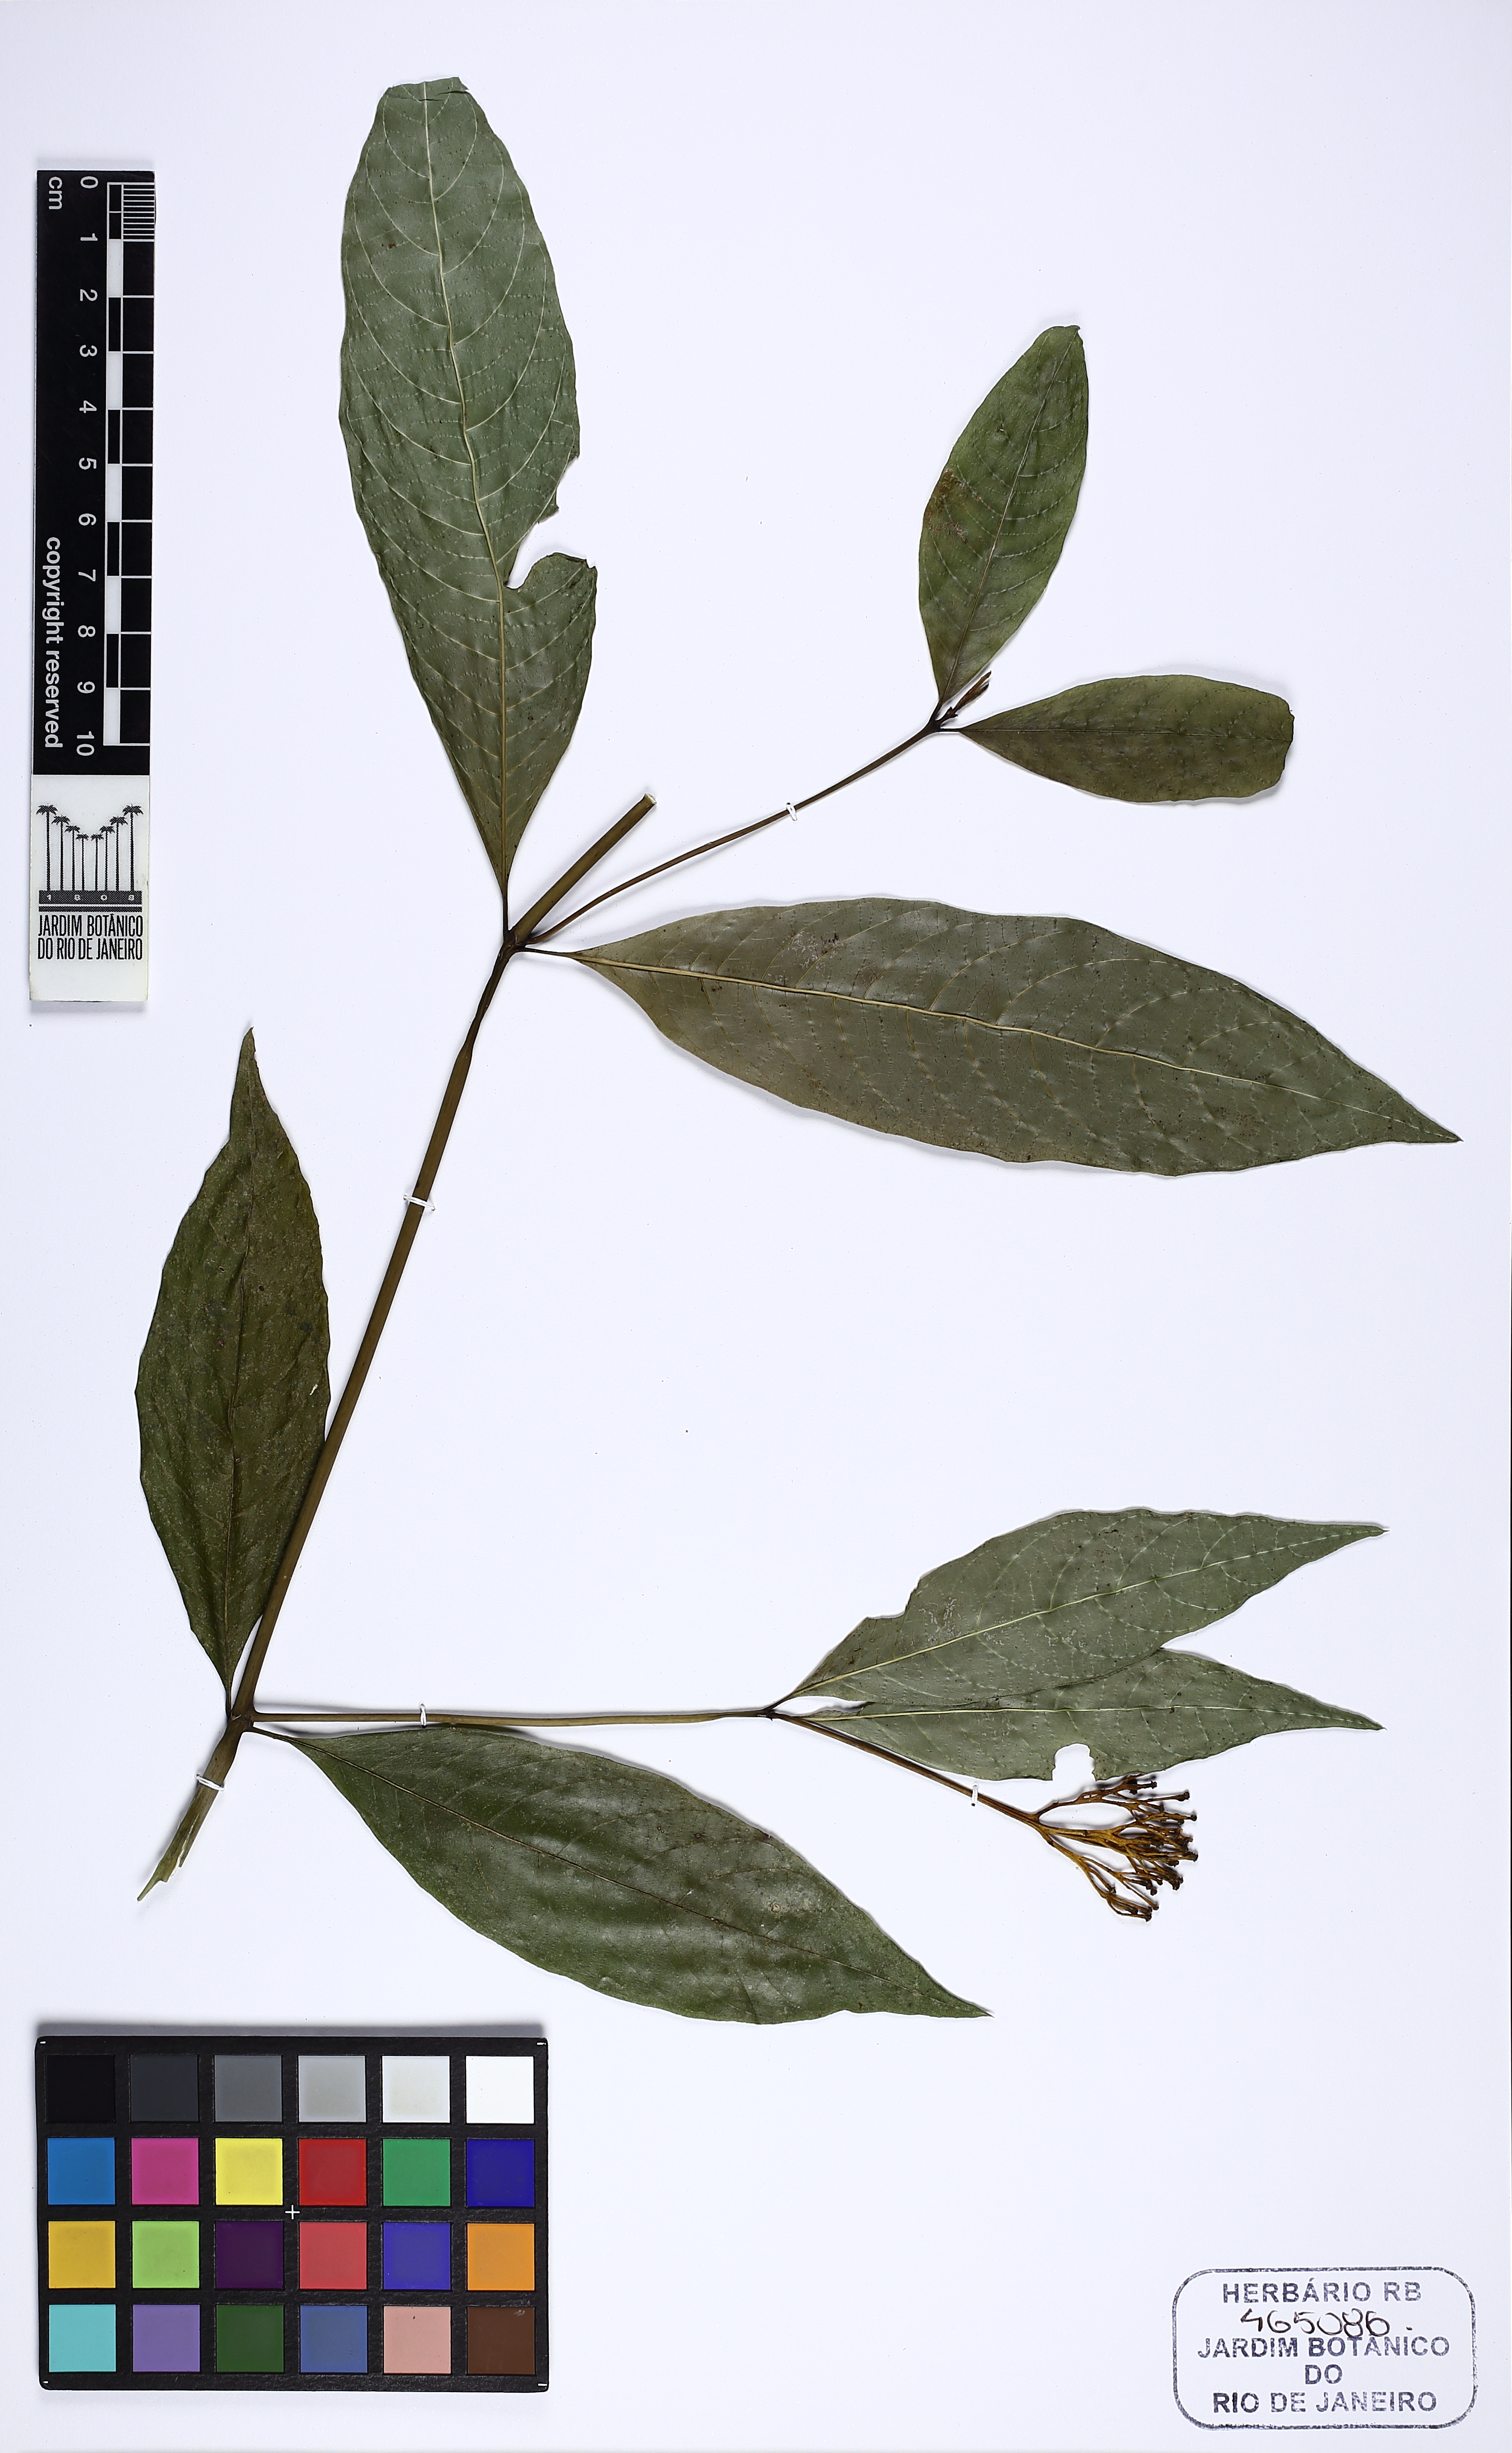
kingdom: Plantae
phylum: Tracheophyta
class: Magnoliopsida
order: Gentianales
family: Rubiaceae
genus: Palicourea
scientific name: Palicourea marcgravii
